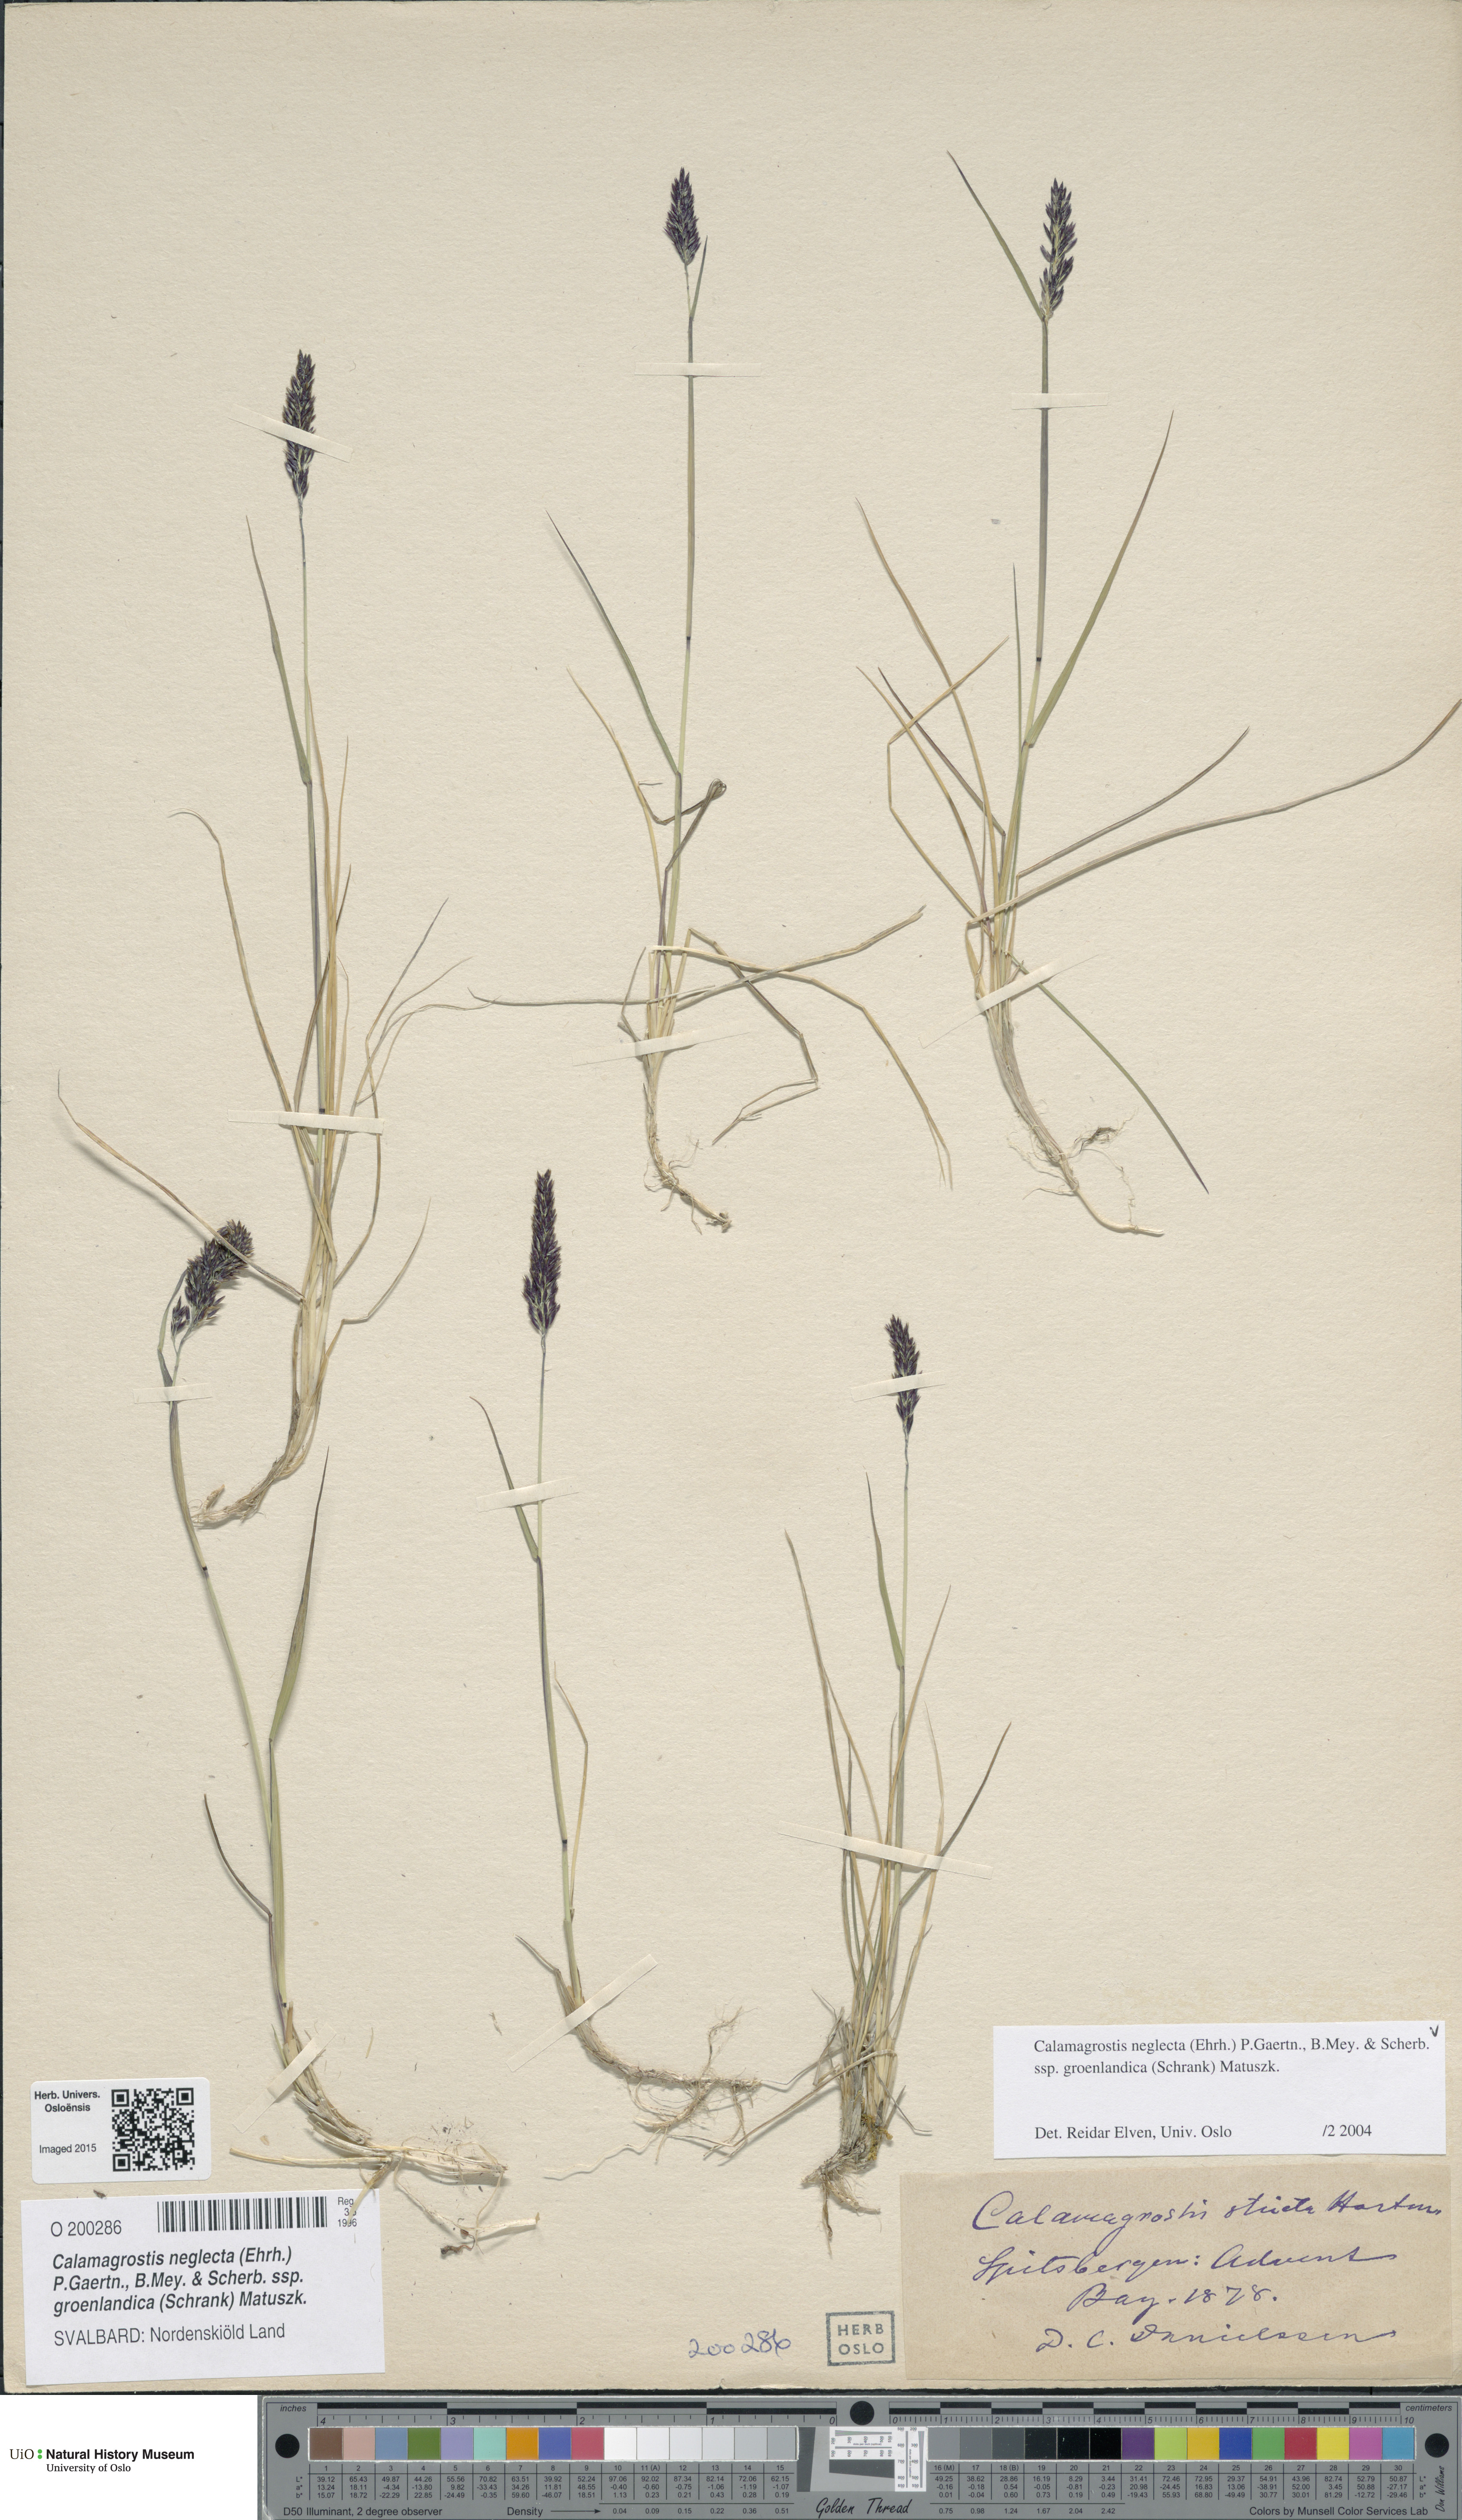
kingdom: Plantae
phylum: Tracheophyta
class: Liliopsida
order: Poales
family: Poaceae
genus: Calamagrostis
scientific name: Calamagrostis stricta
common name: Narrow small-reed
